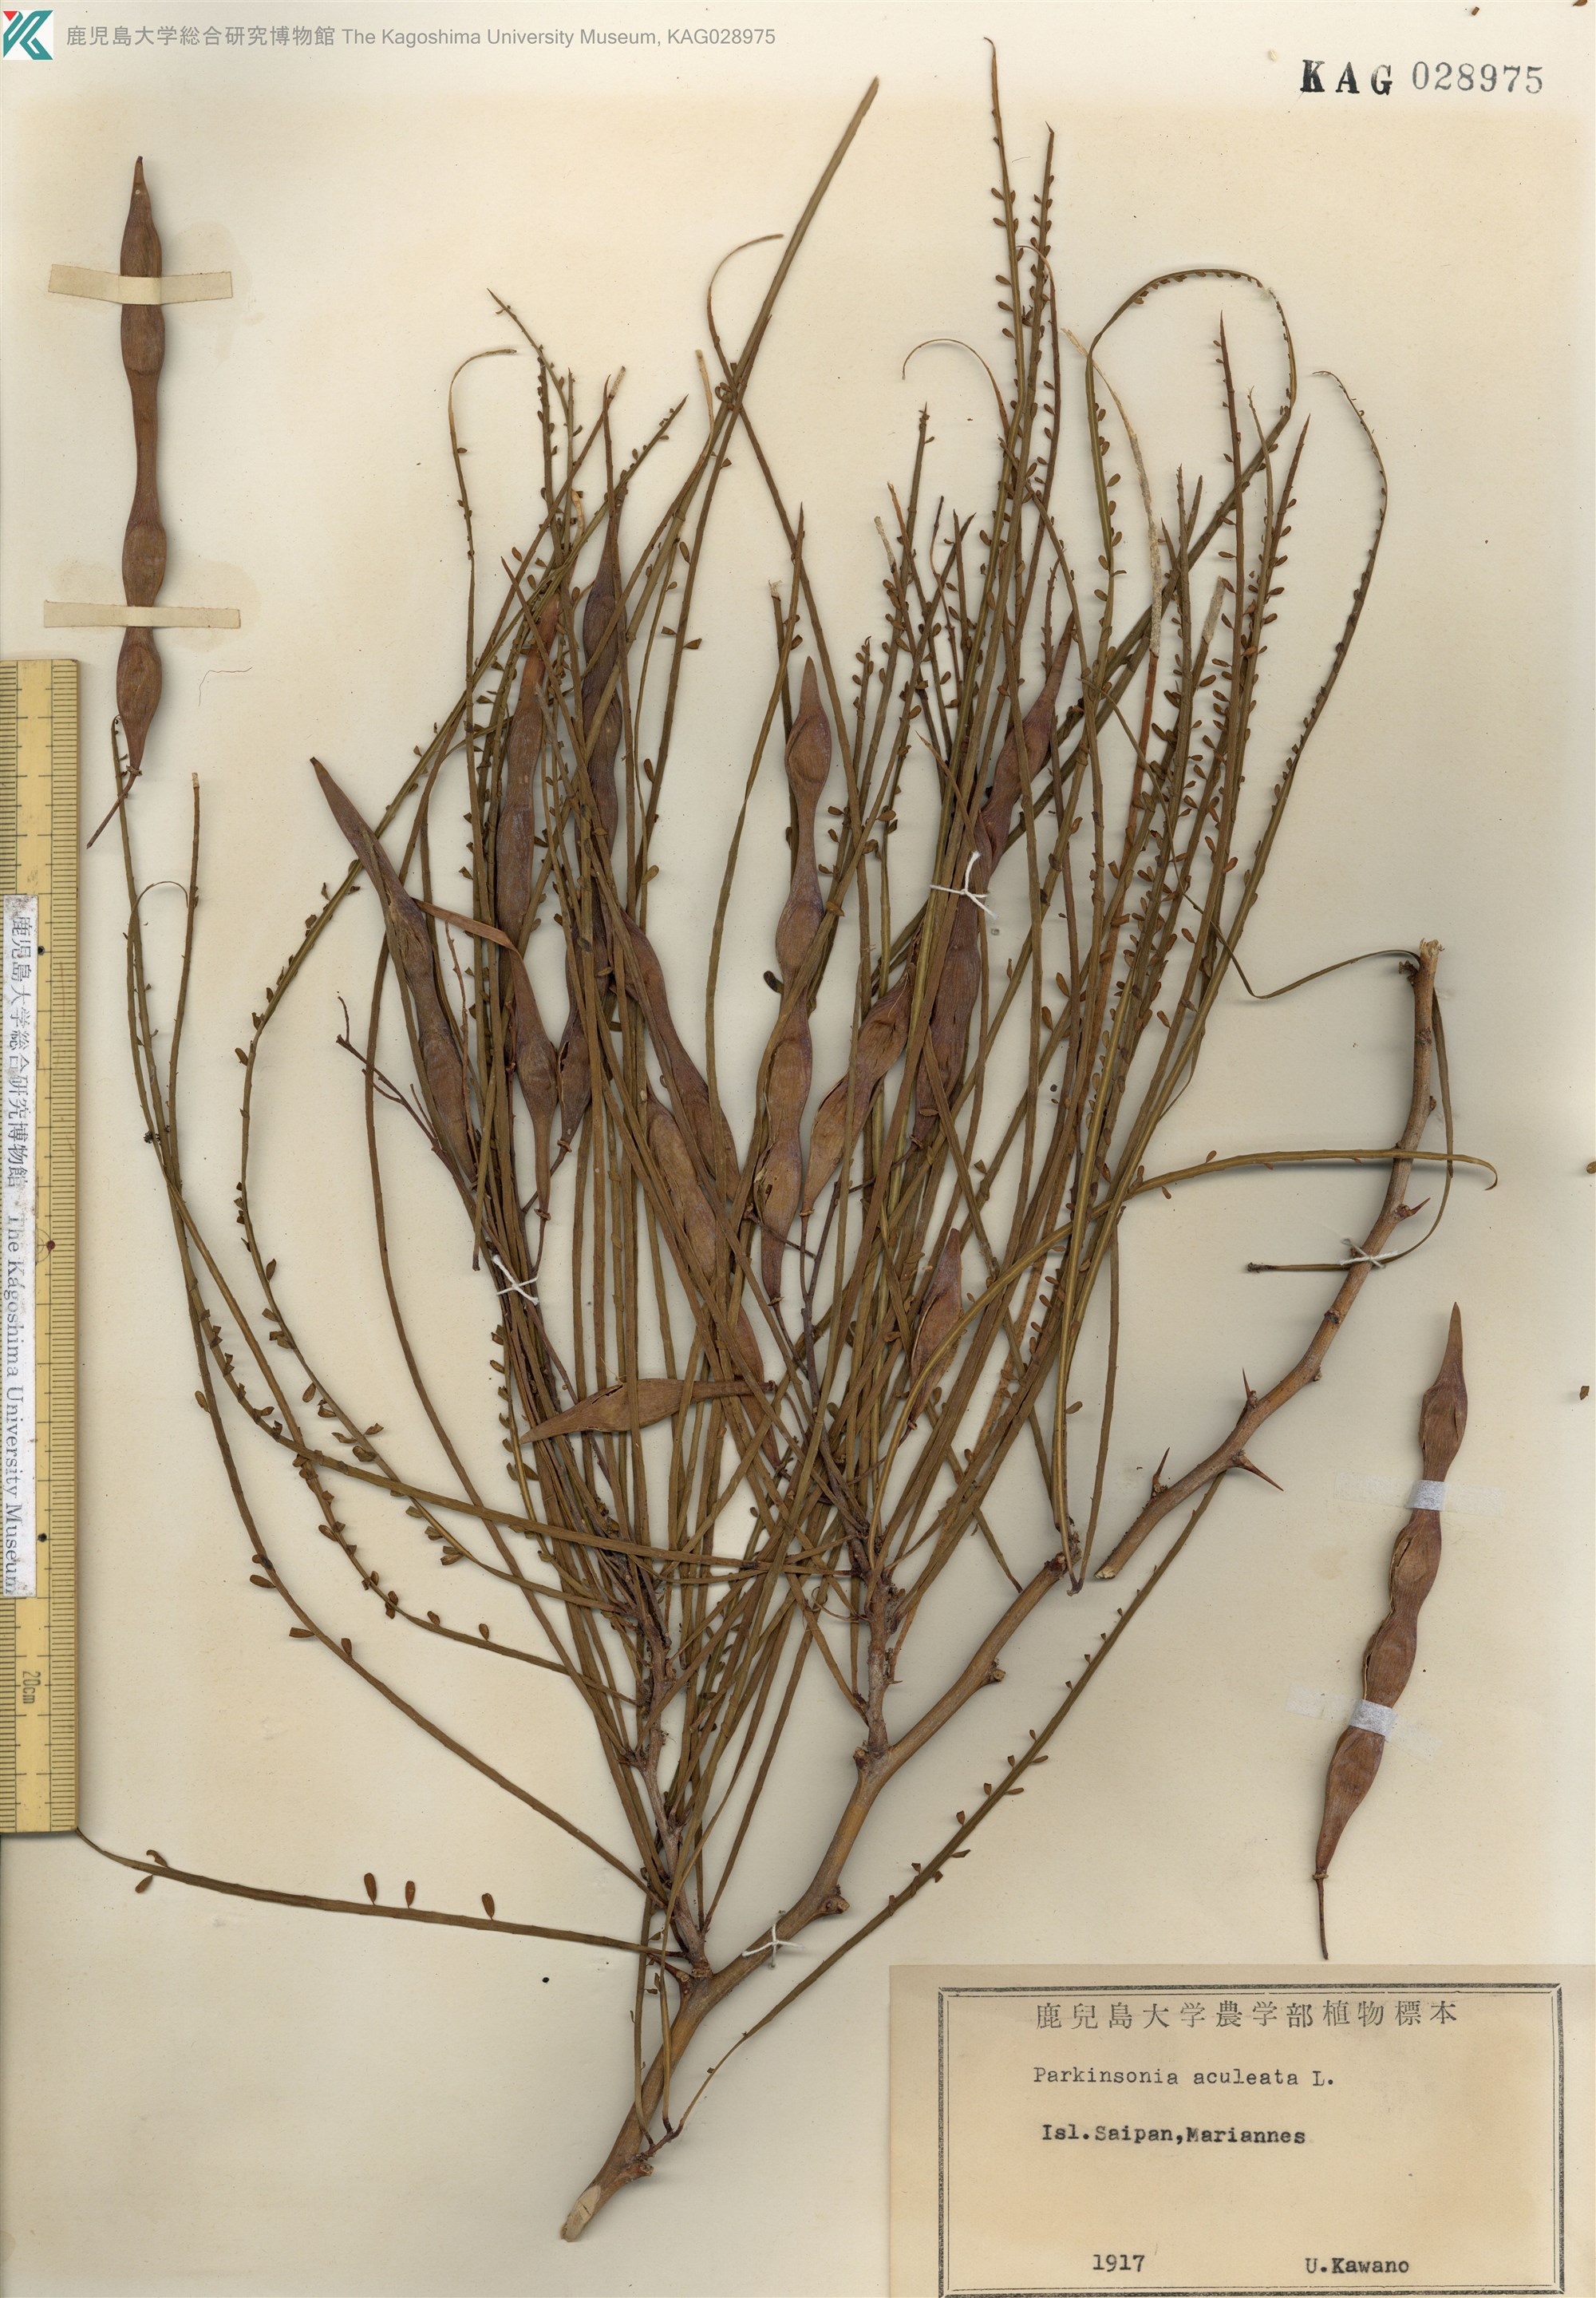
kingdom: Plantae
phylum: Tracheophyta
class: Magnoliopsida
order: Fabales
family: Fabaceae
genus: Parkinsonia
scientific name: Parkinsonia aculeata
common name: Jerusalem thorn
